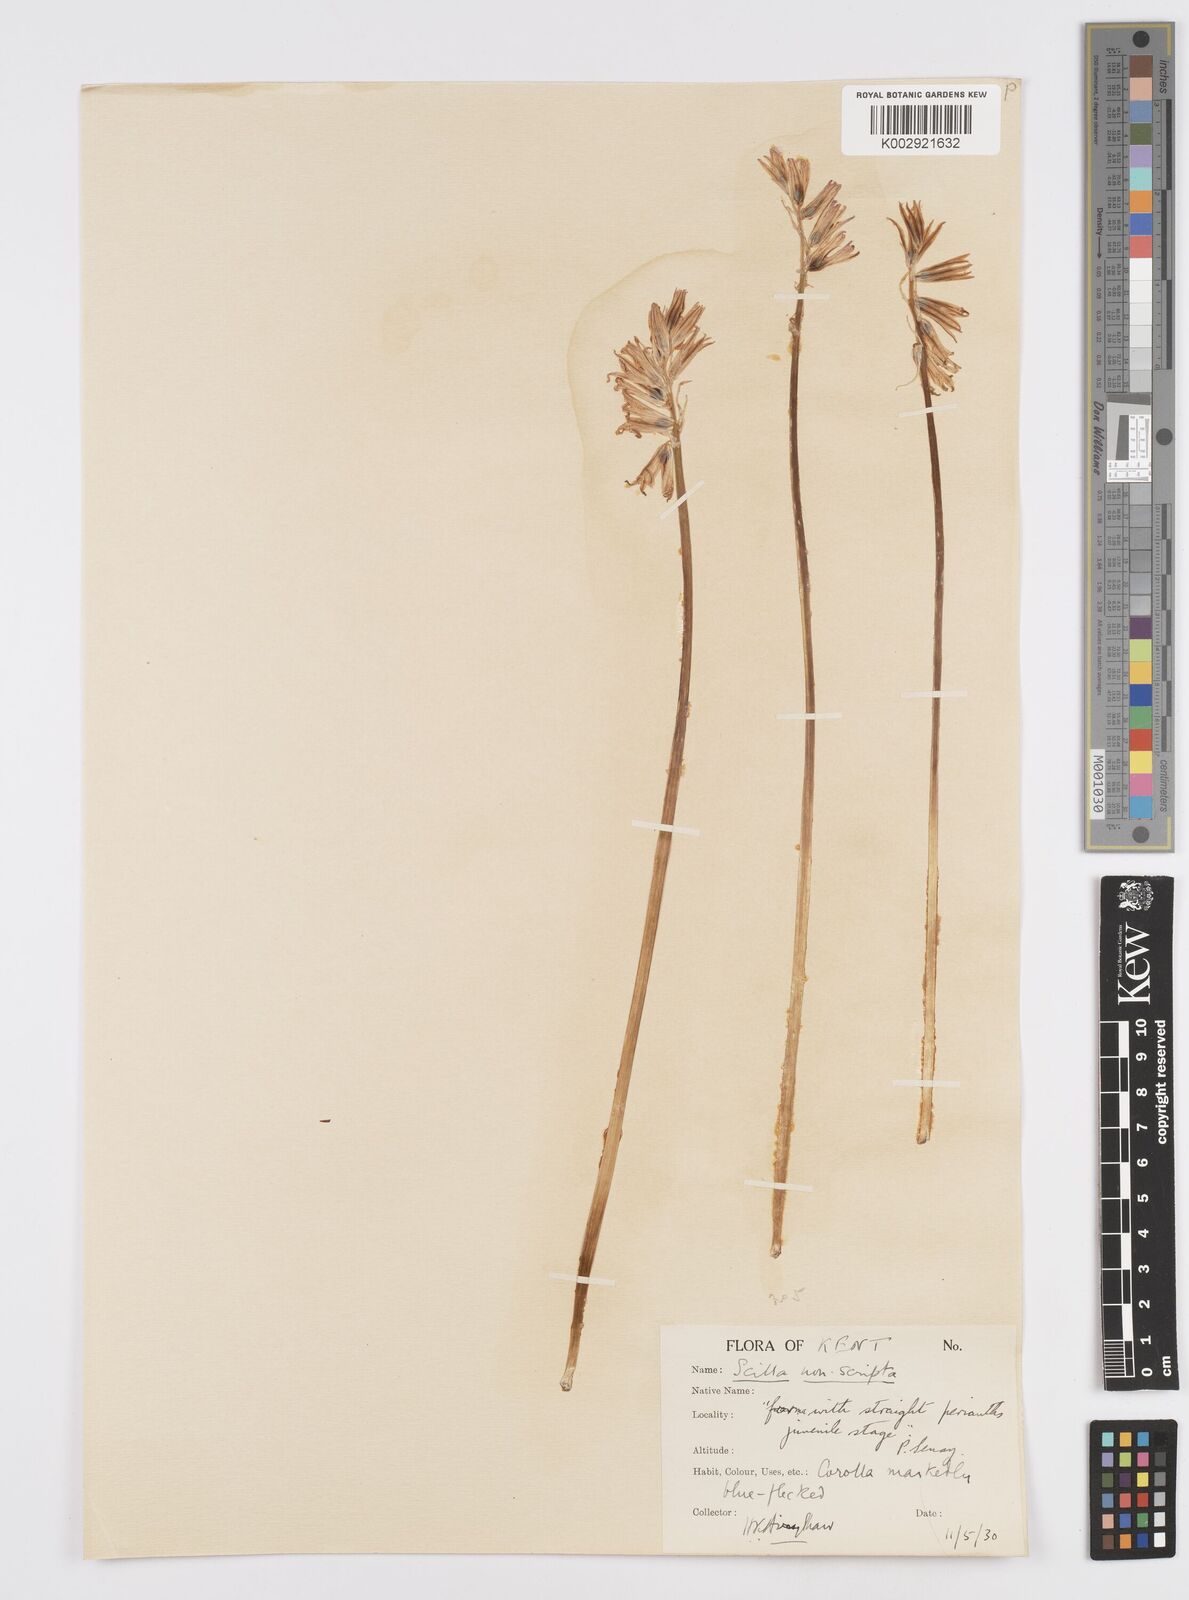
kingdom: Plantae
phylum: Tracheophyta
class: Liliopsida
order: Asparagales
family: Asparagaceae
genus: Hyacinthoides
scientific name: Hyacinthoides non-scripta
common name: Bluebell
